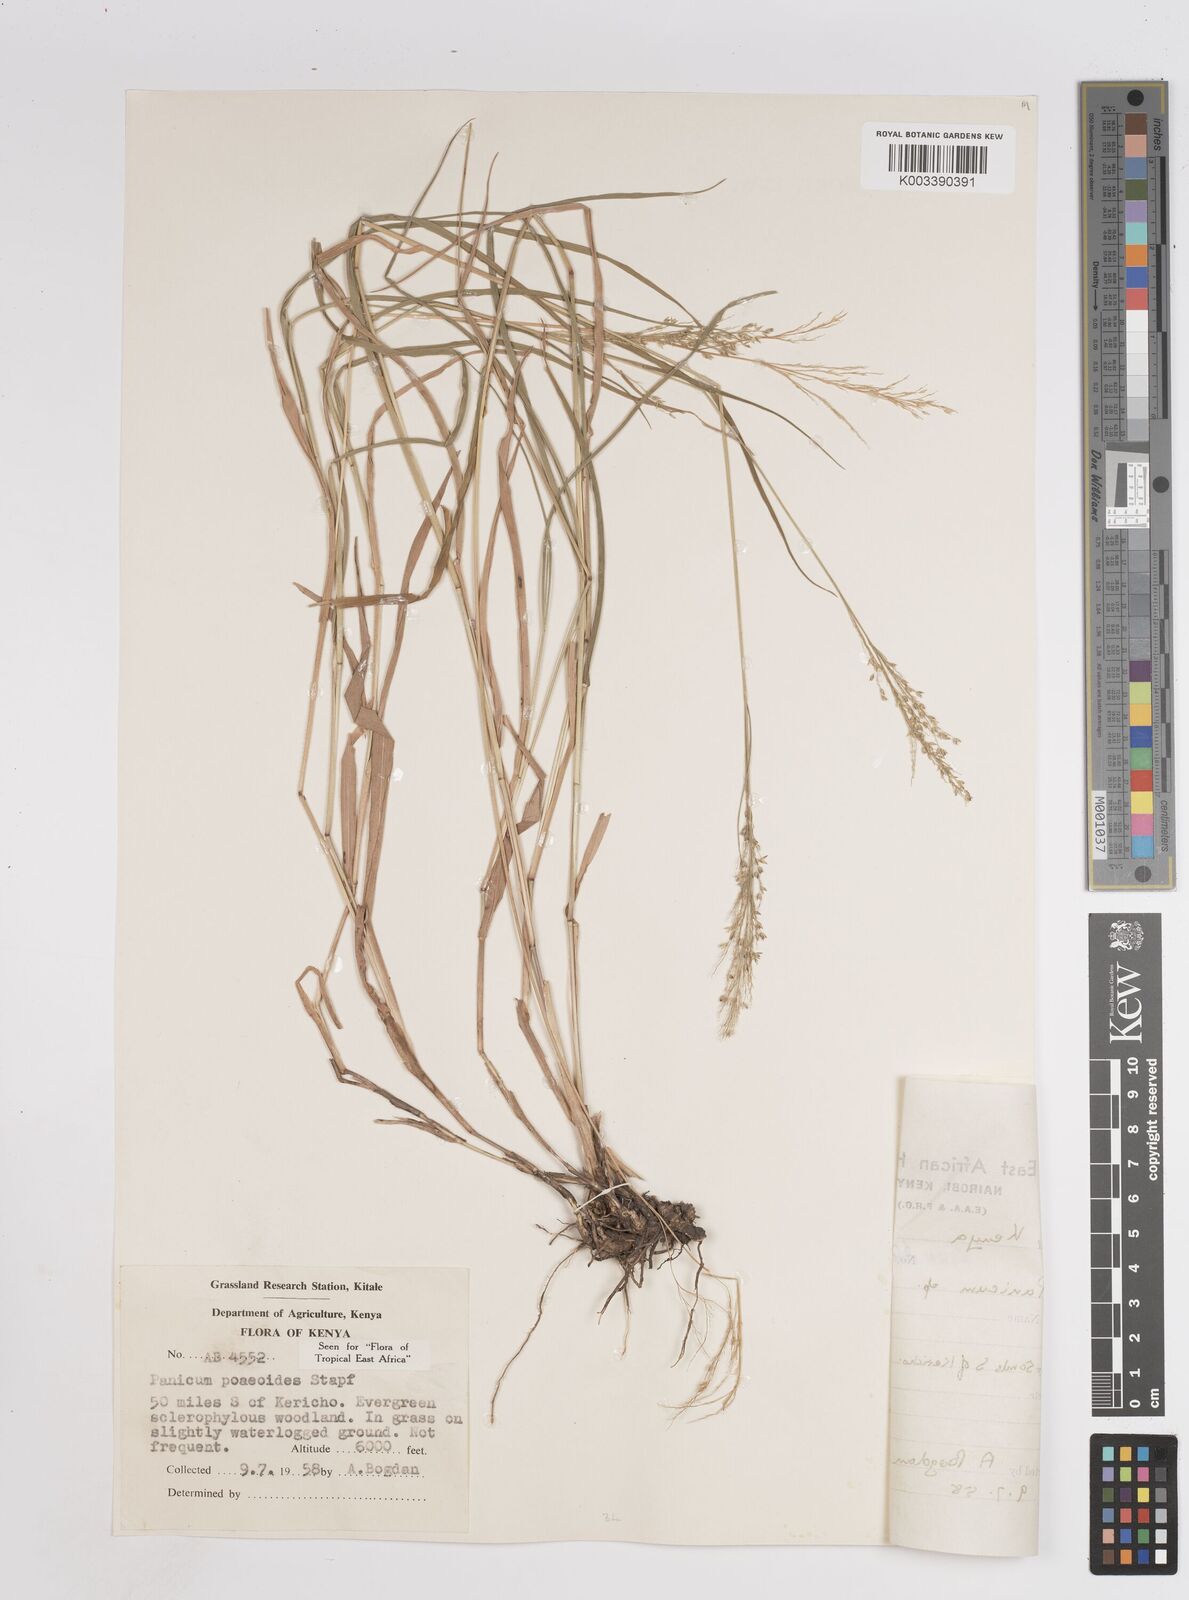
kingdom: Plantae
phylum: Tracheophyta
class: Liliopsida
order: Poales
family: Poaceae
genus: Panicum
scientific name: Panicum
